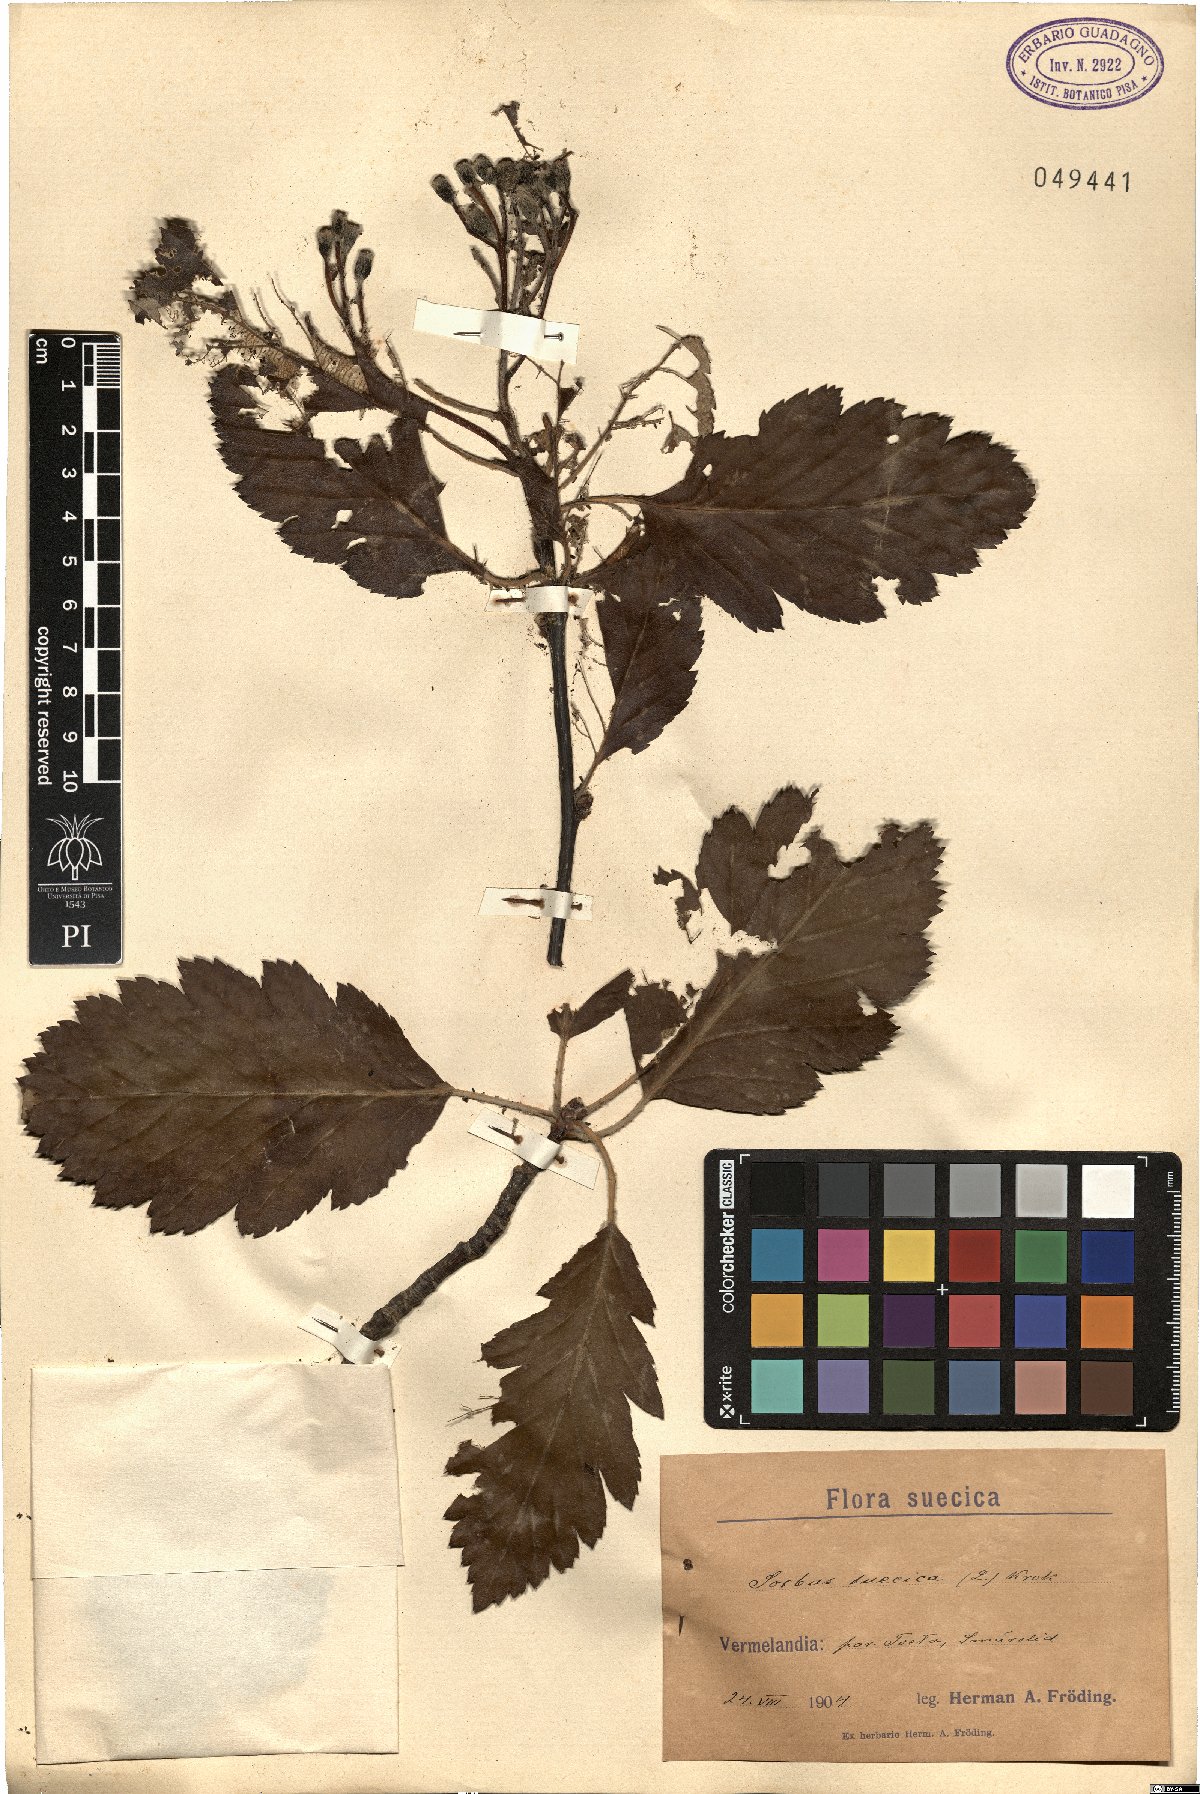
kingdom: Plantae
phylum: Tracheophyta
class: Magnoliopsida
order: Rosales
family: Rosaceae
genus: Scandosorbus
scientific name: Scandosorbus intermedia
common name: Swedish whitebeam
